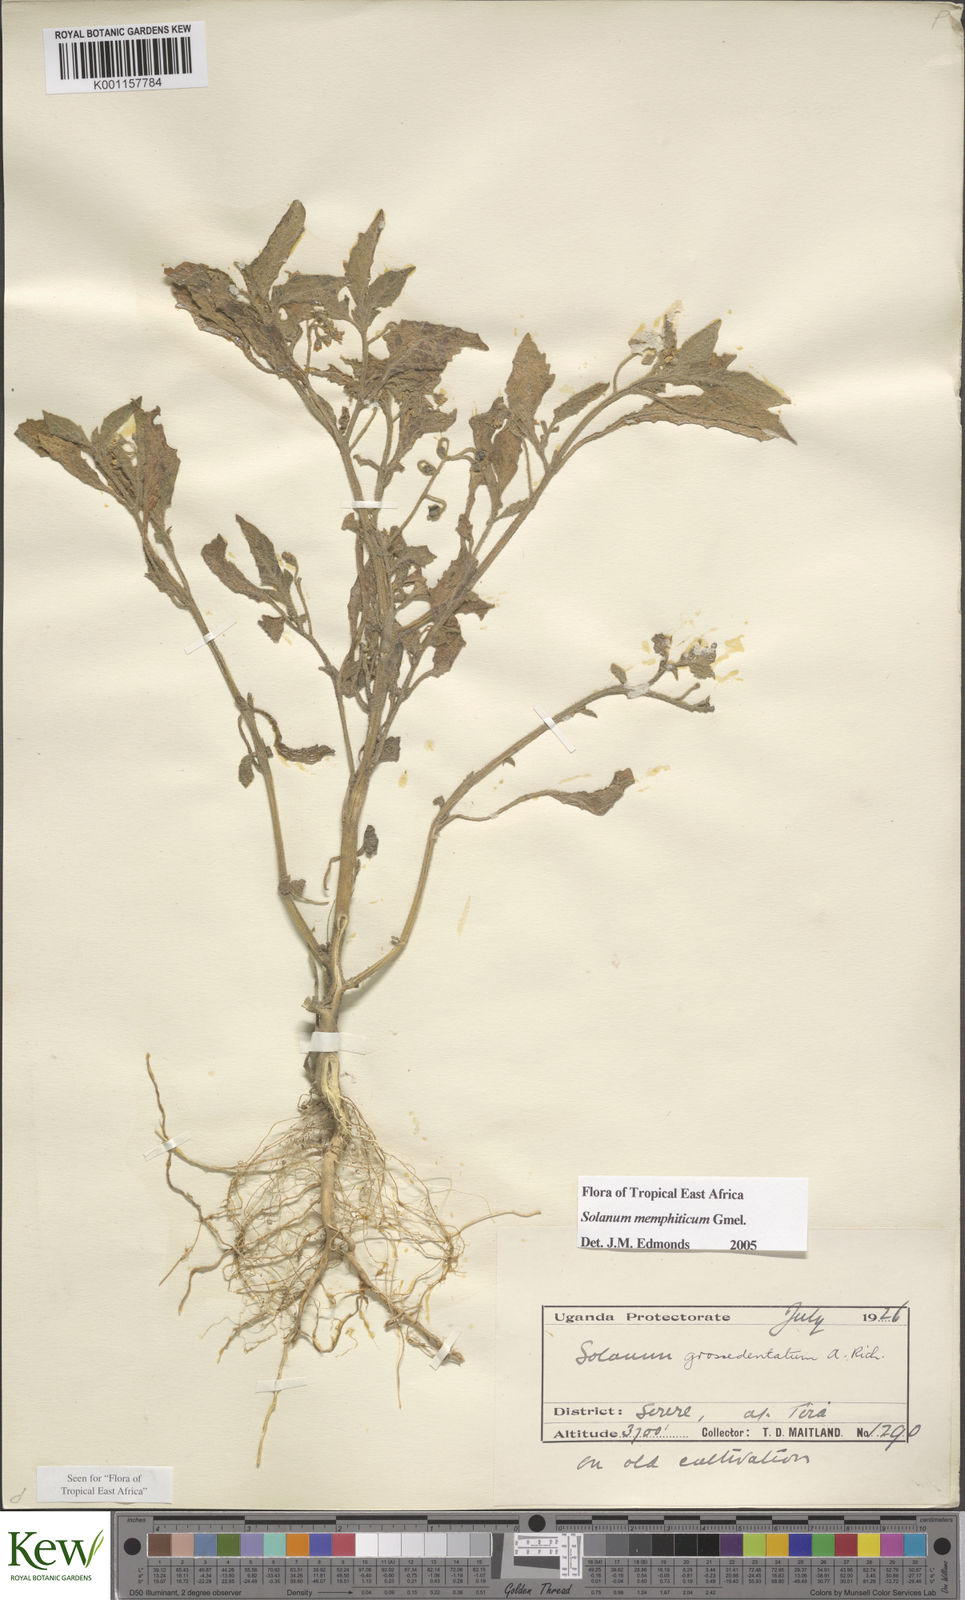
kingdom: Plantae
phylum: Tracheophyta
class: Magnoliopsida
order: Solanales
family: Solanaceae
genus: Solanum
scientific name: Solanum memphiticum
